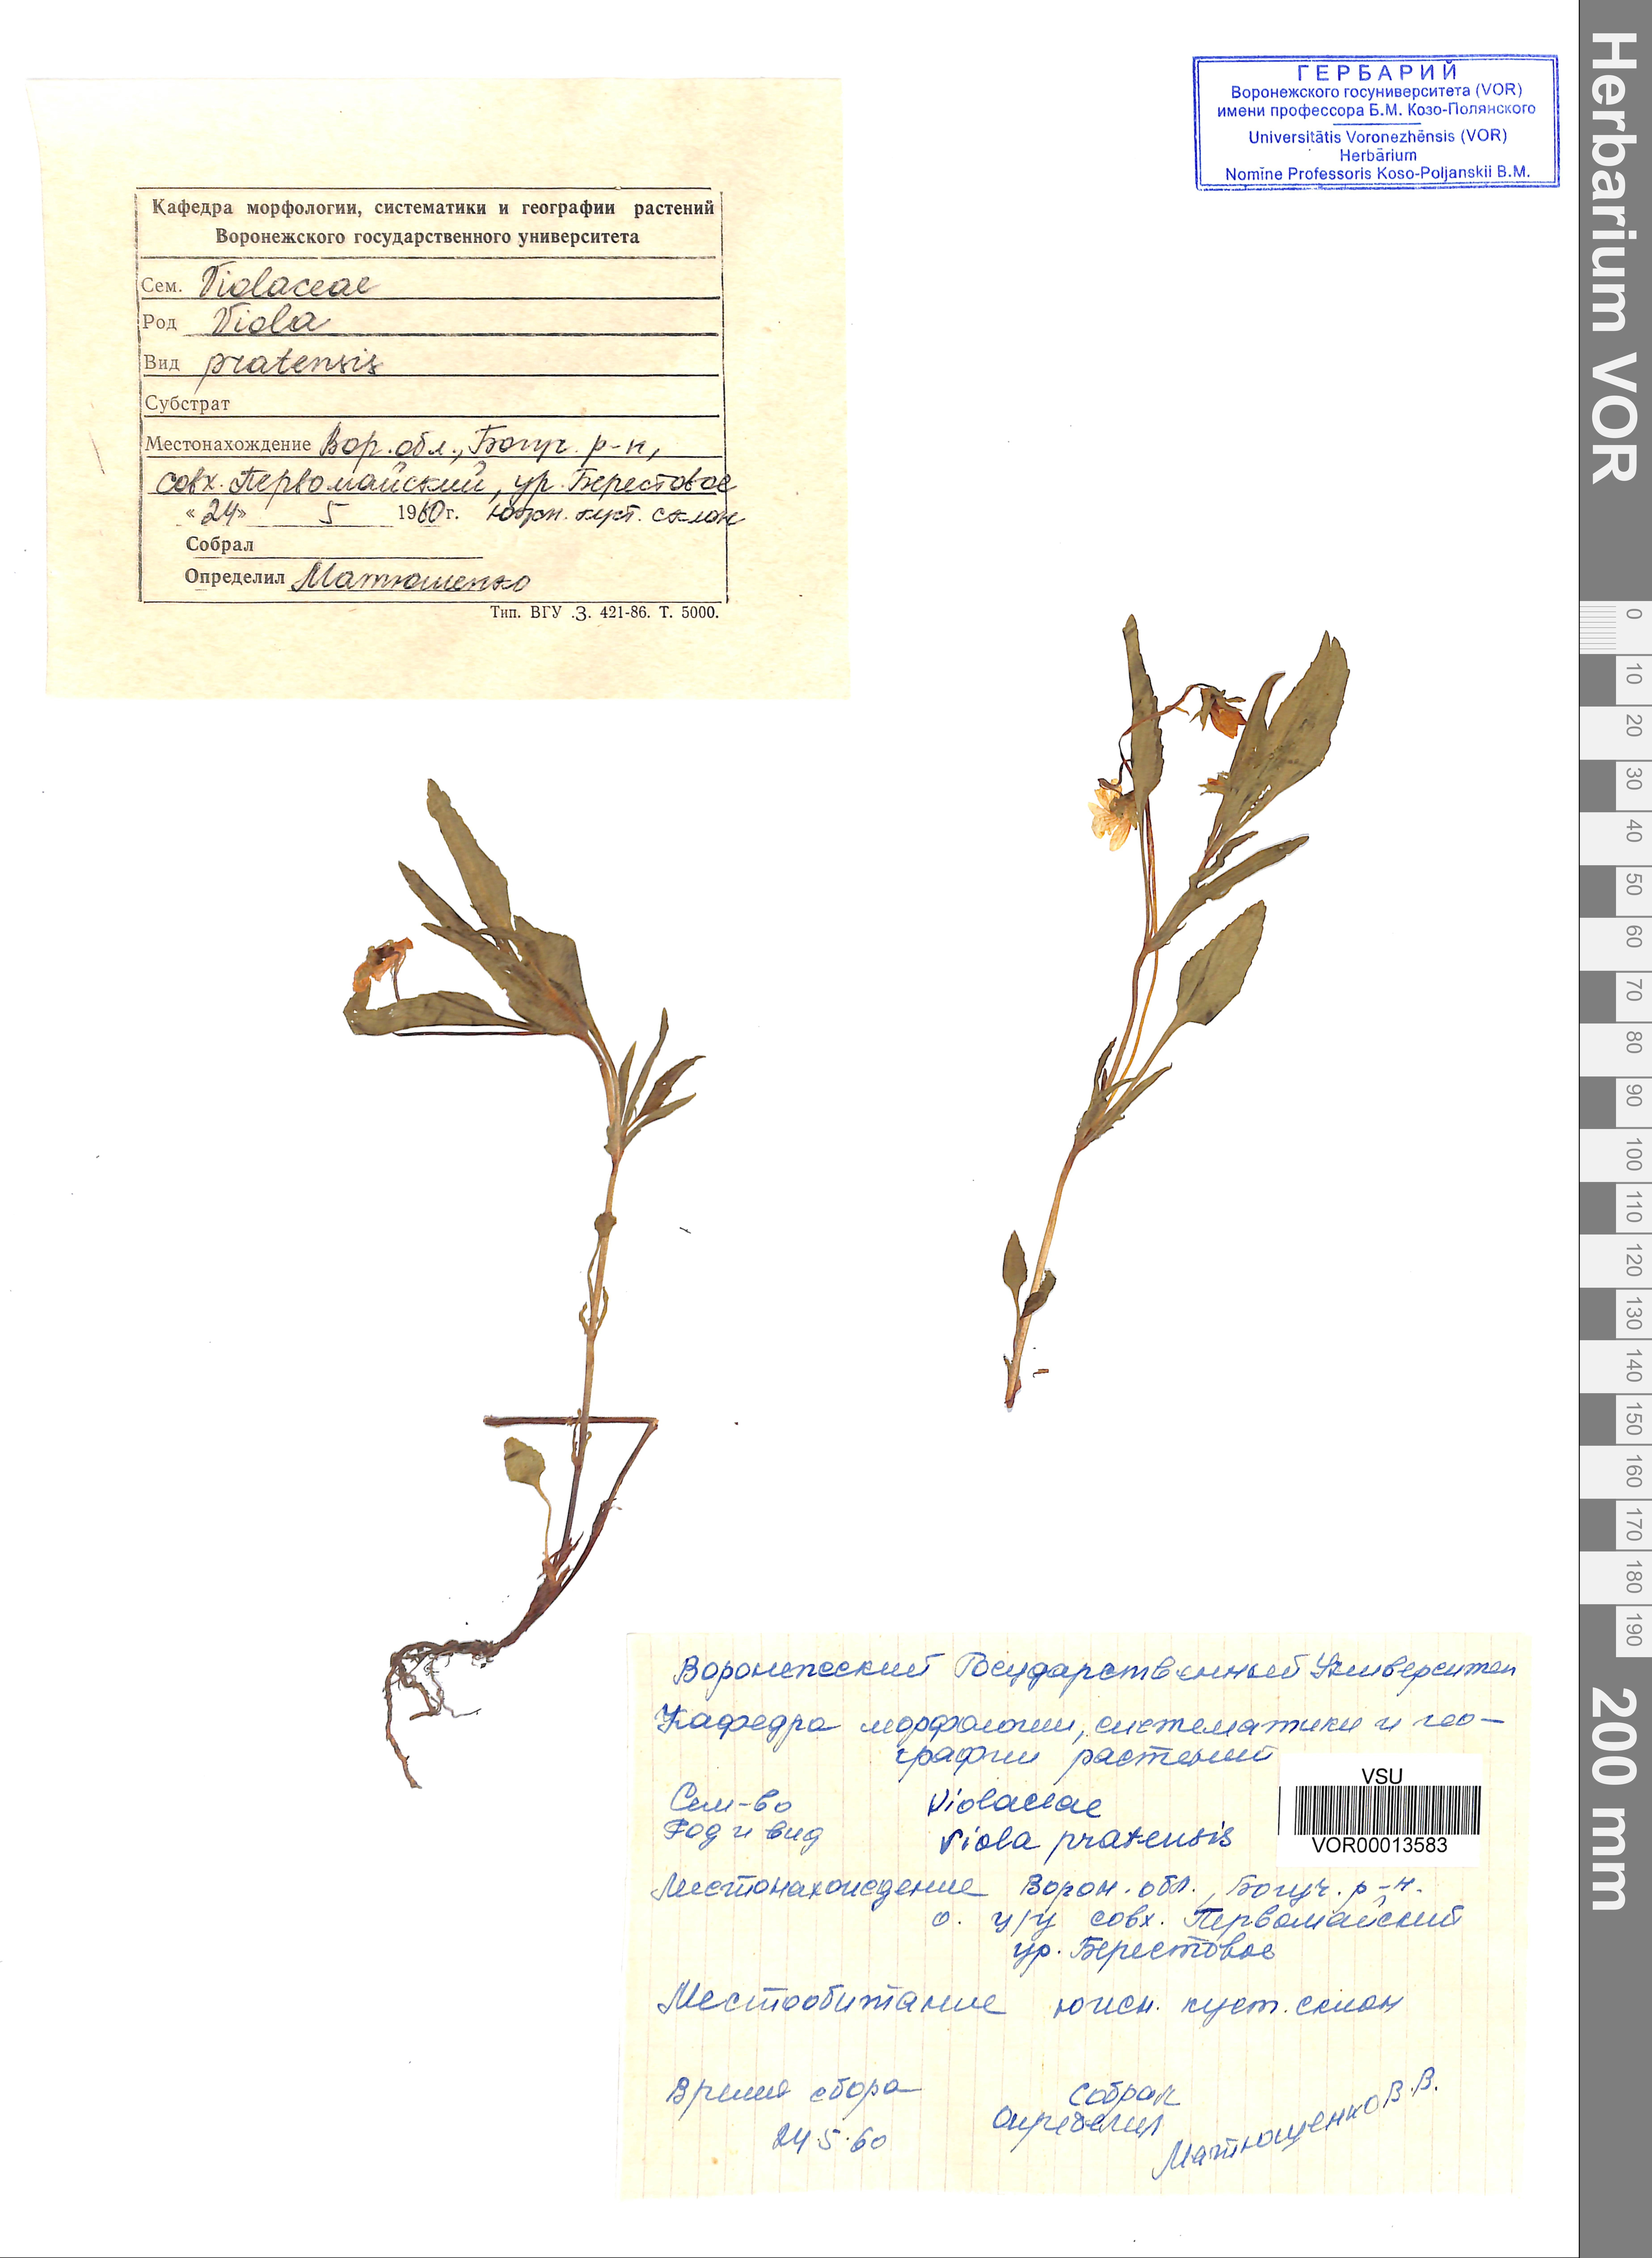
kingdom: Plantae
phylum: Tracheophyta
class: Magnoliopsida
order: Malpighiales
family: Violaceae
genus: Viola
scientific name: Viola pumila
